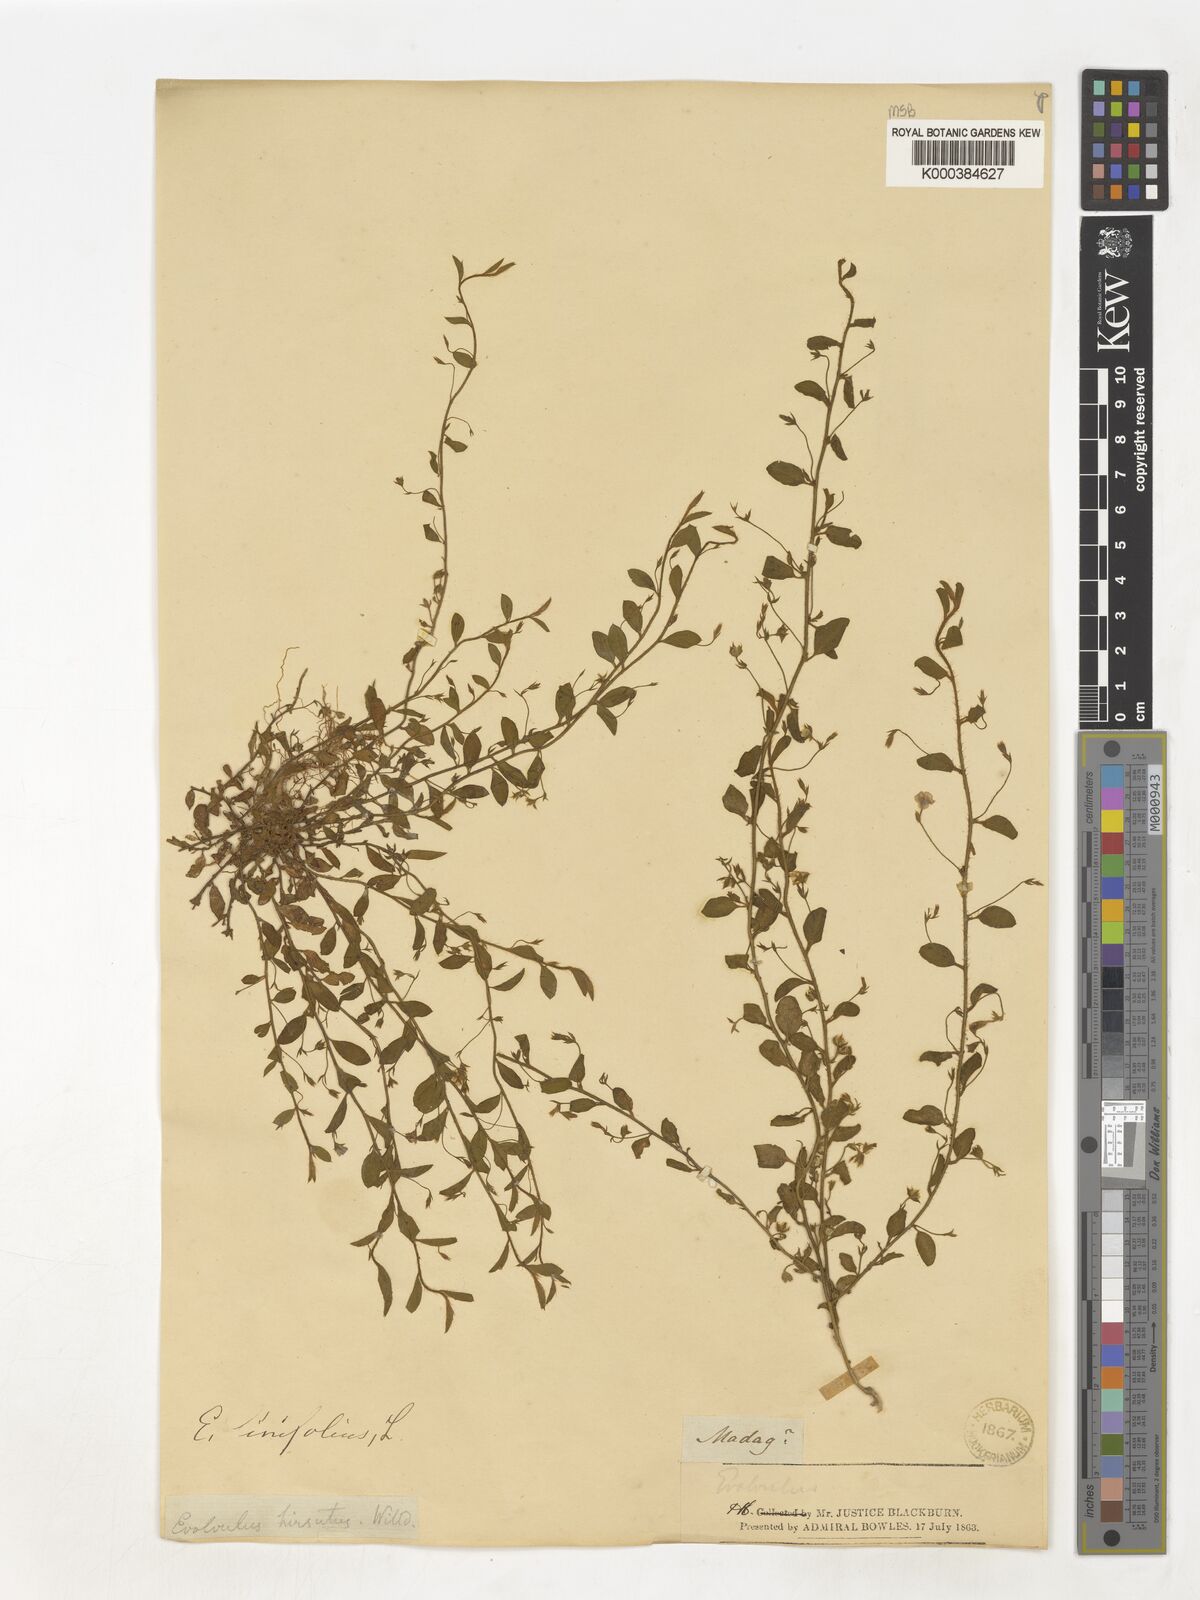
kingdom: Plantae
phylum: Tracheophyta
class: Magnoliopsida
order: Solanales
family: Convolvulaceae
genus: Evolvulus
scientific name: Evolvulus alsinoides
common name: Slender dwarf morning-glory
